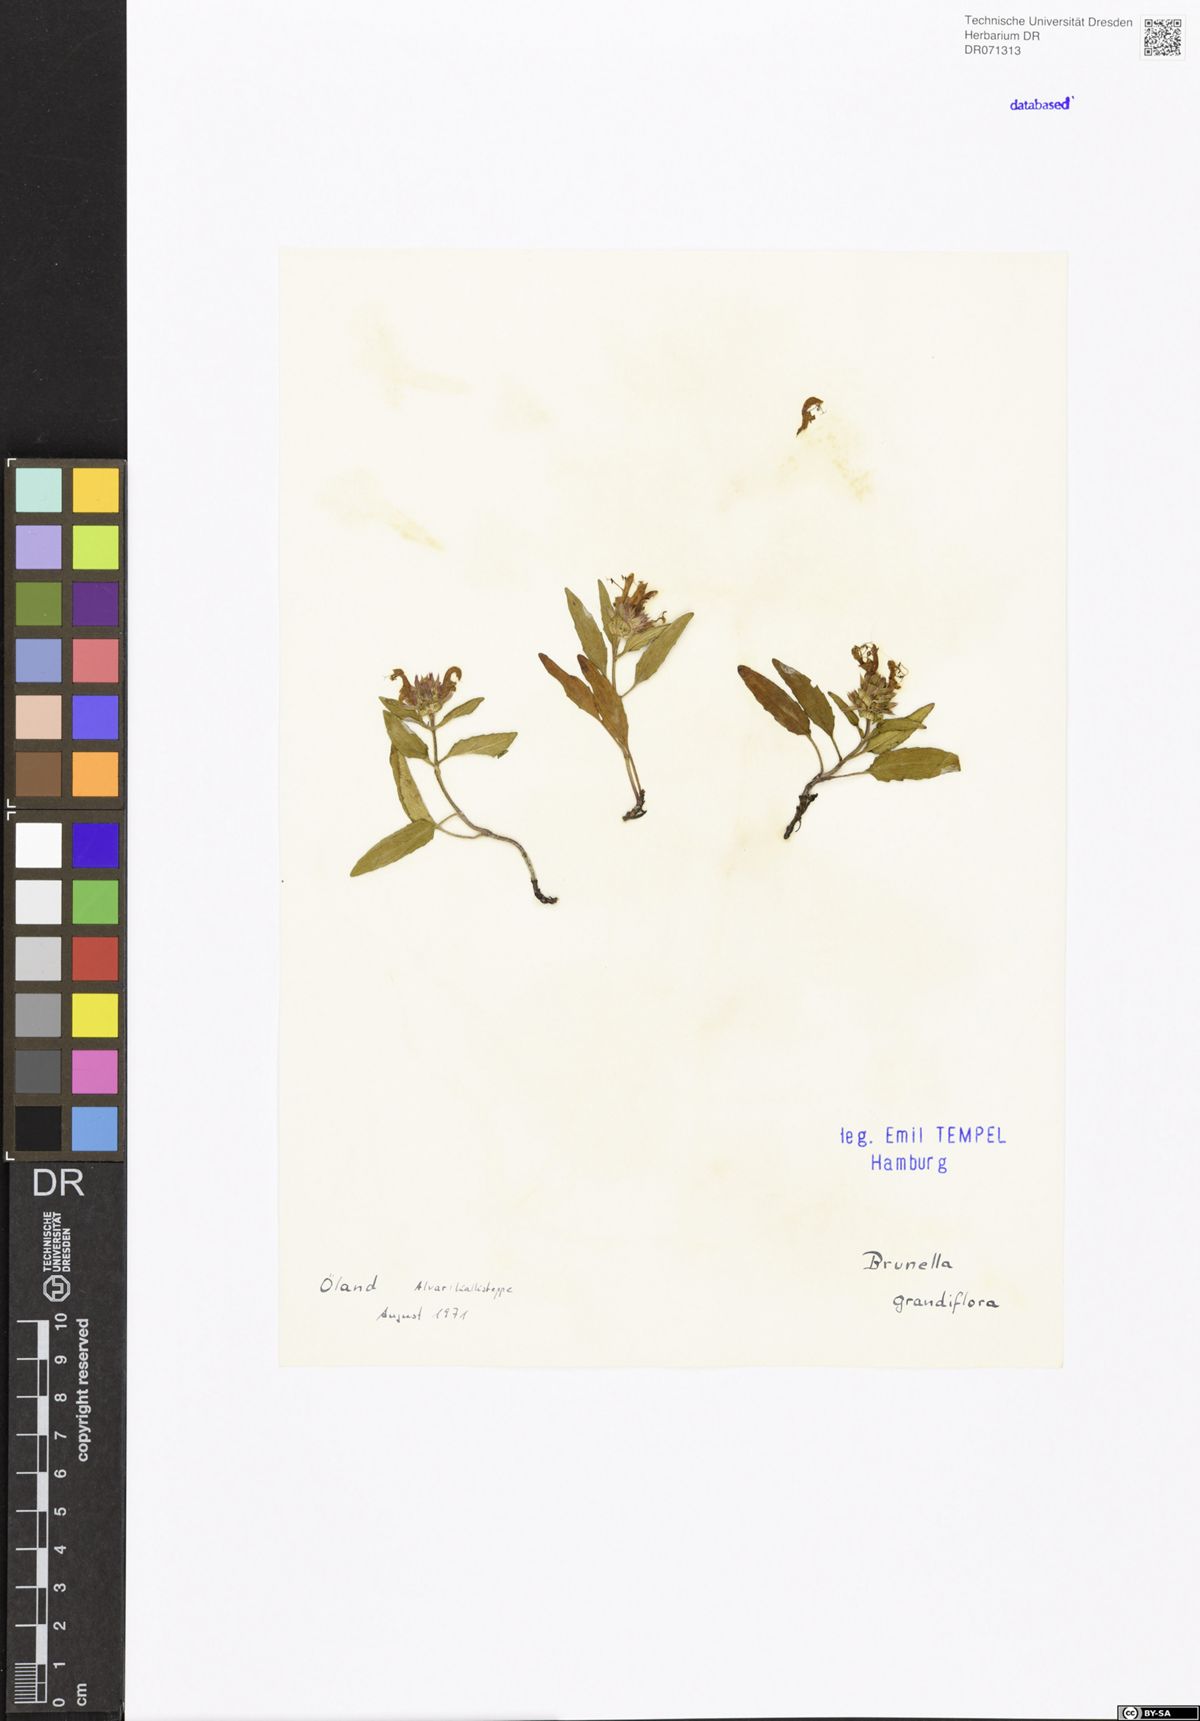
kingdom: Plantae
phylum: Tracheophyta
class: Magnoliopsida
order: Lamiales
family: Lamiaceae
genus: Prunella
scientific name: Prunella grandiflora
